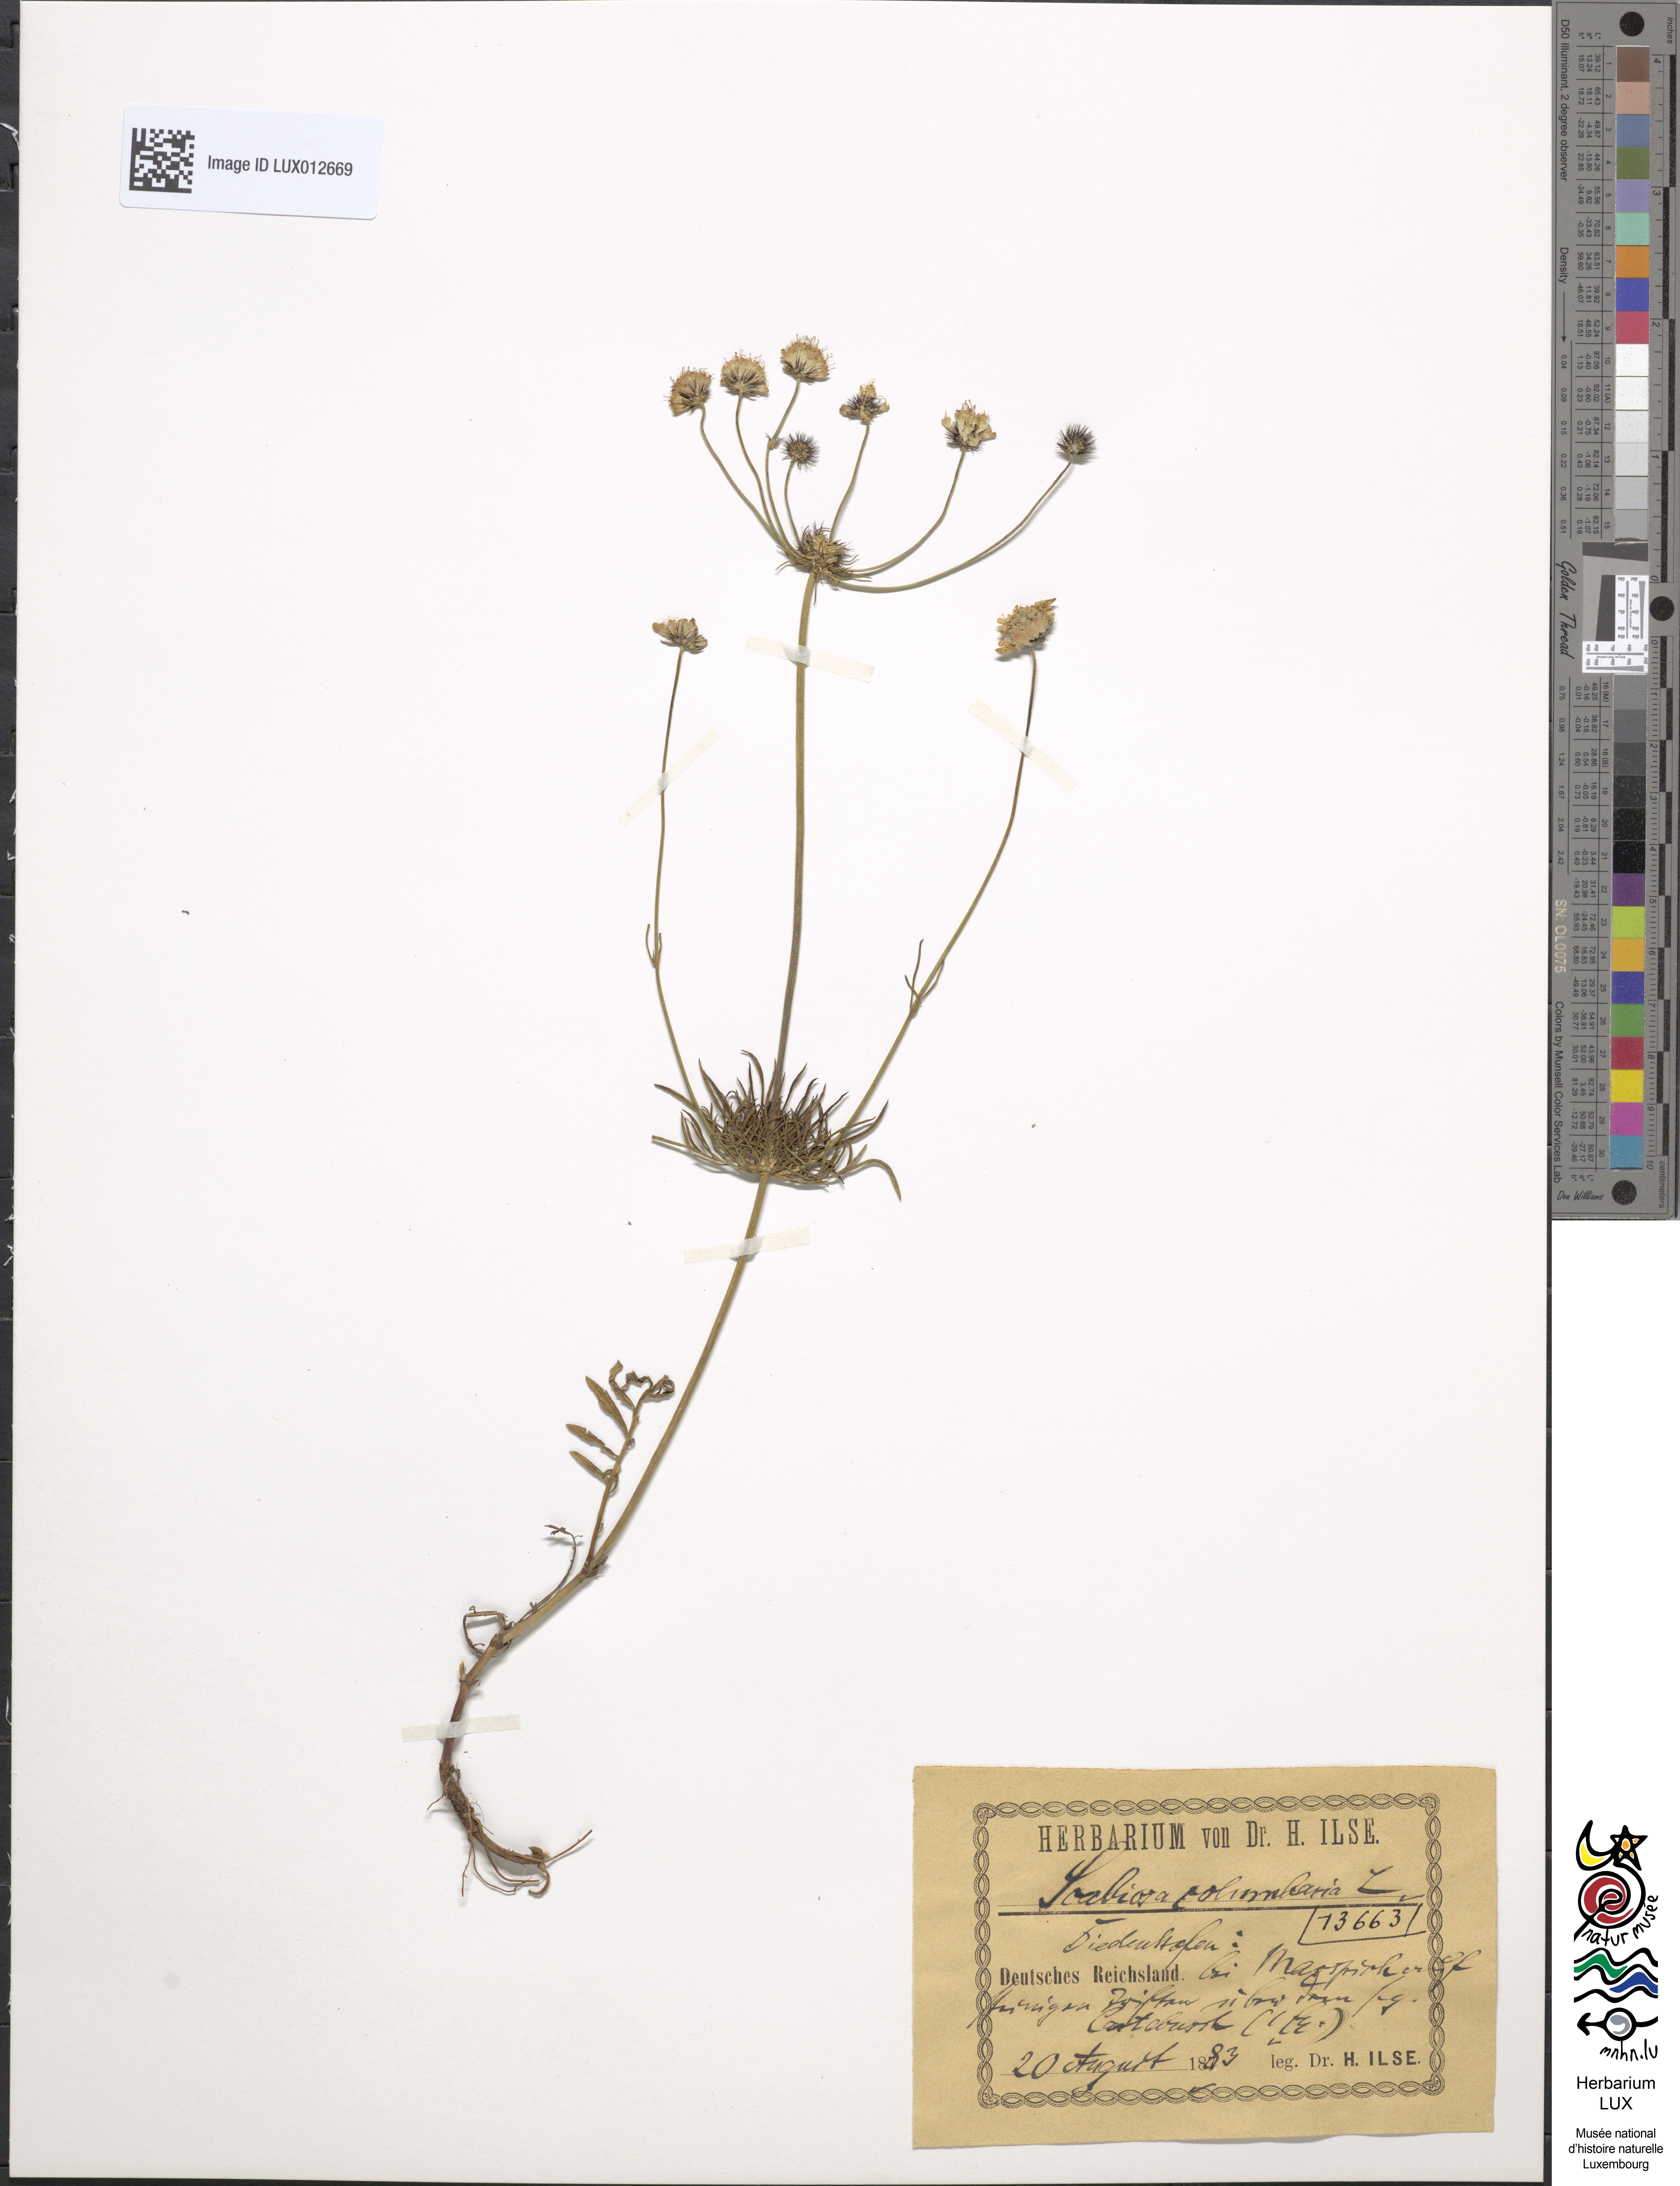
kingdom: Plantae
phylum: Tracheophyta
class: Magnoliopsida
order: Dipsacales
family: Caprifoliaceae
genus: Scabiosa
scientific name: Scabiosa columbaria
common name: Small scabious
